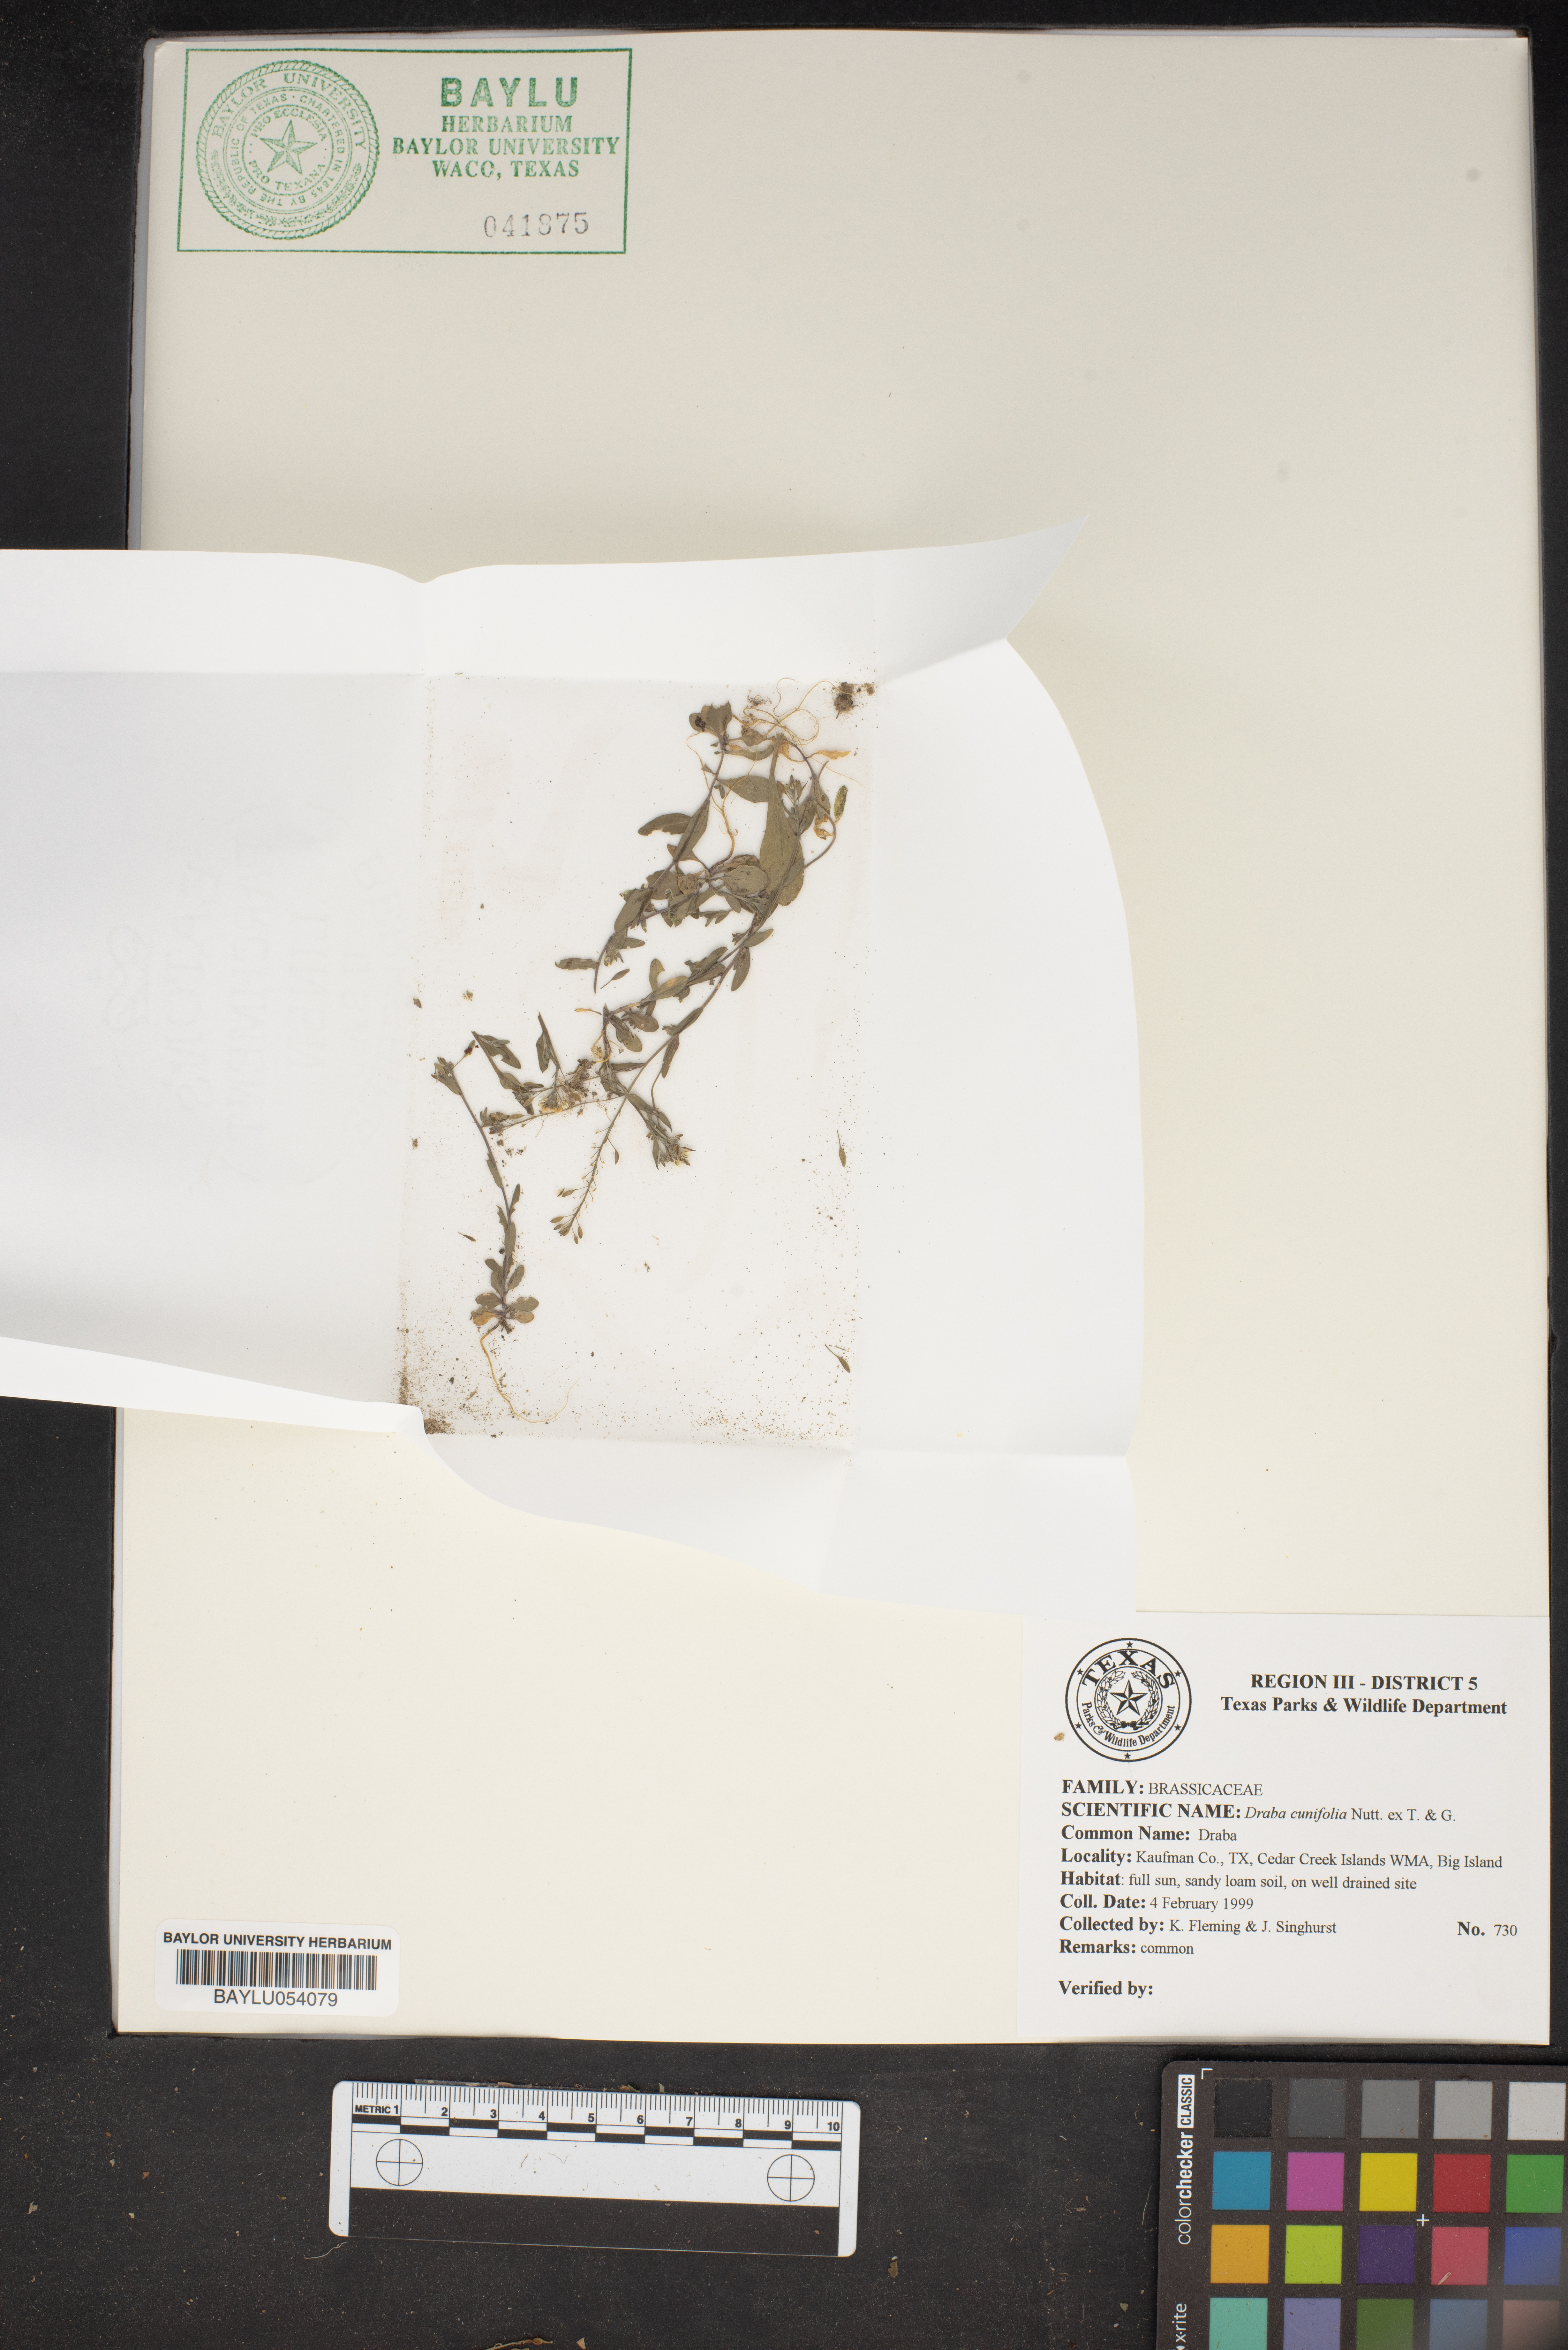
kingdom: Plantae
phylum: Tracheophyta
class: Magnoliopsida
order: Brassicales
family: Brassicaceae
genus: Tomostima
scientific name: Tomostima cuneifolia
